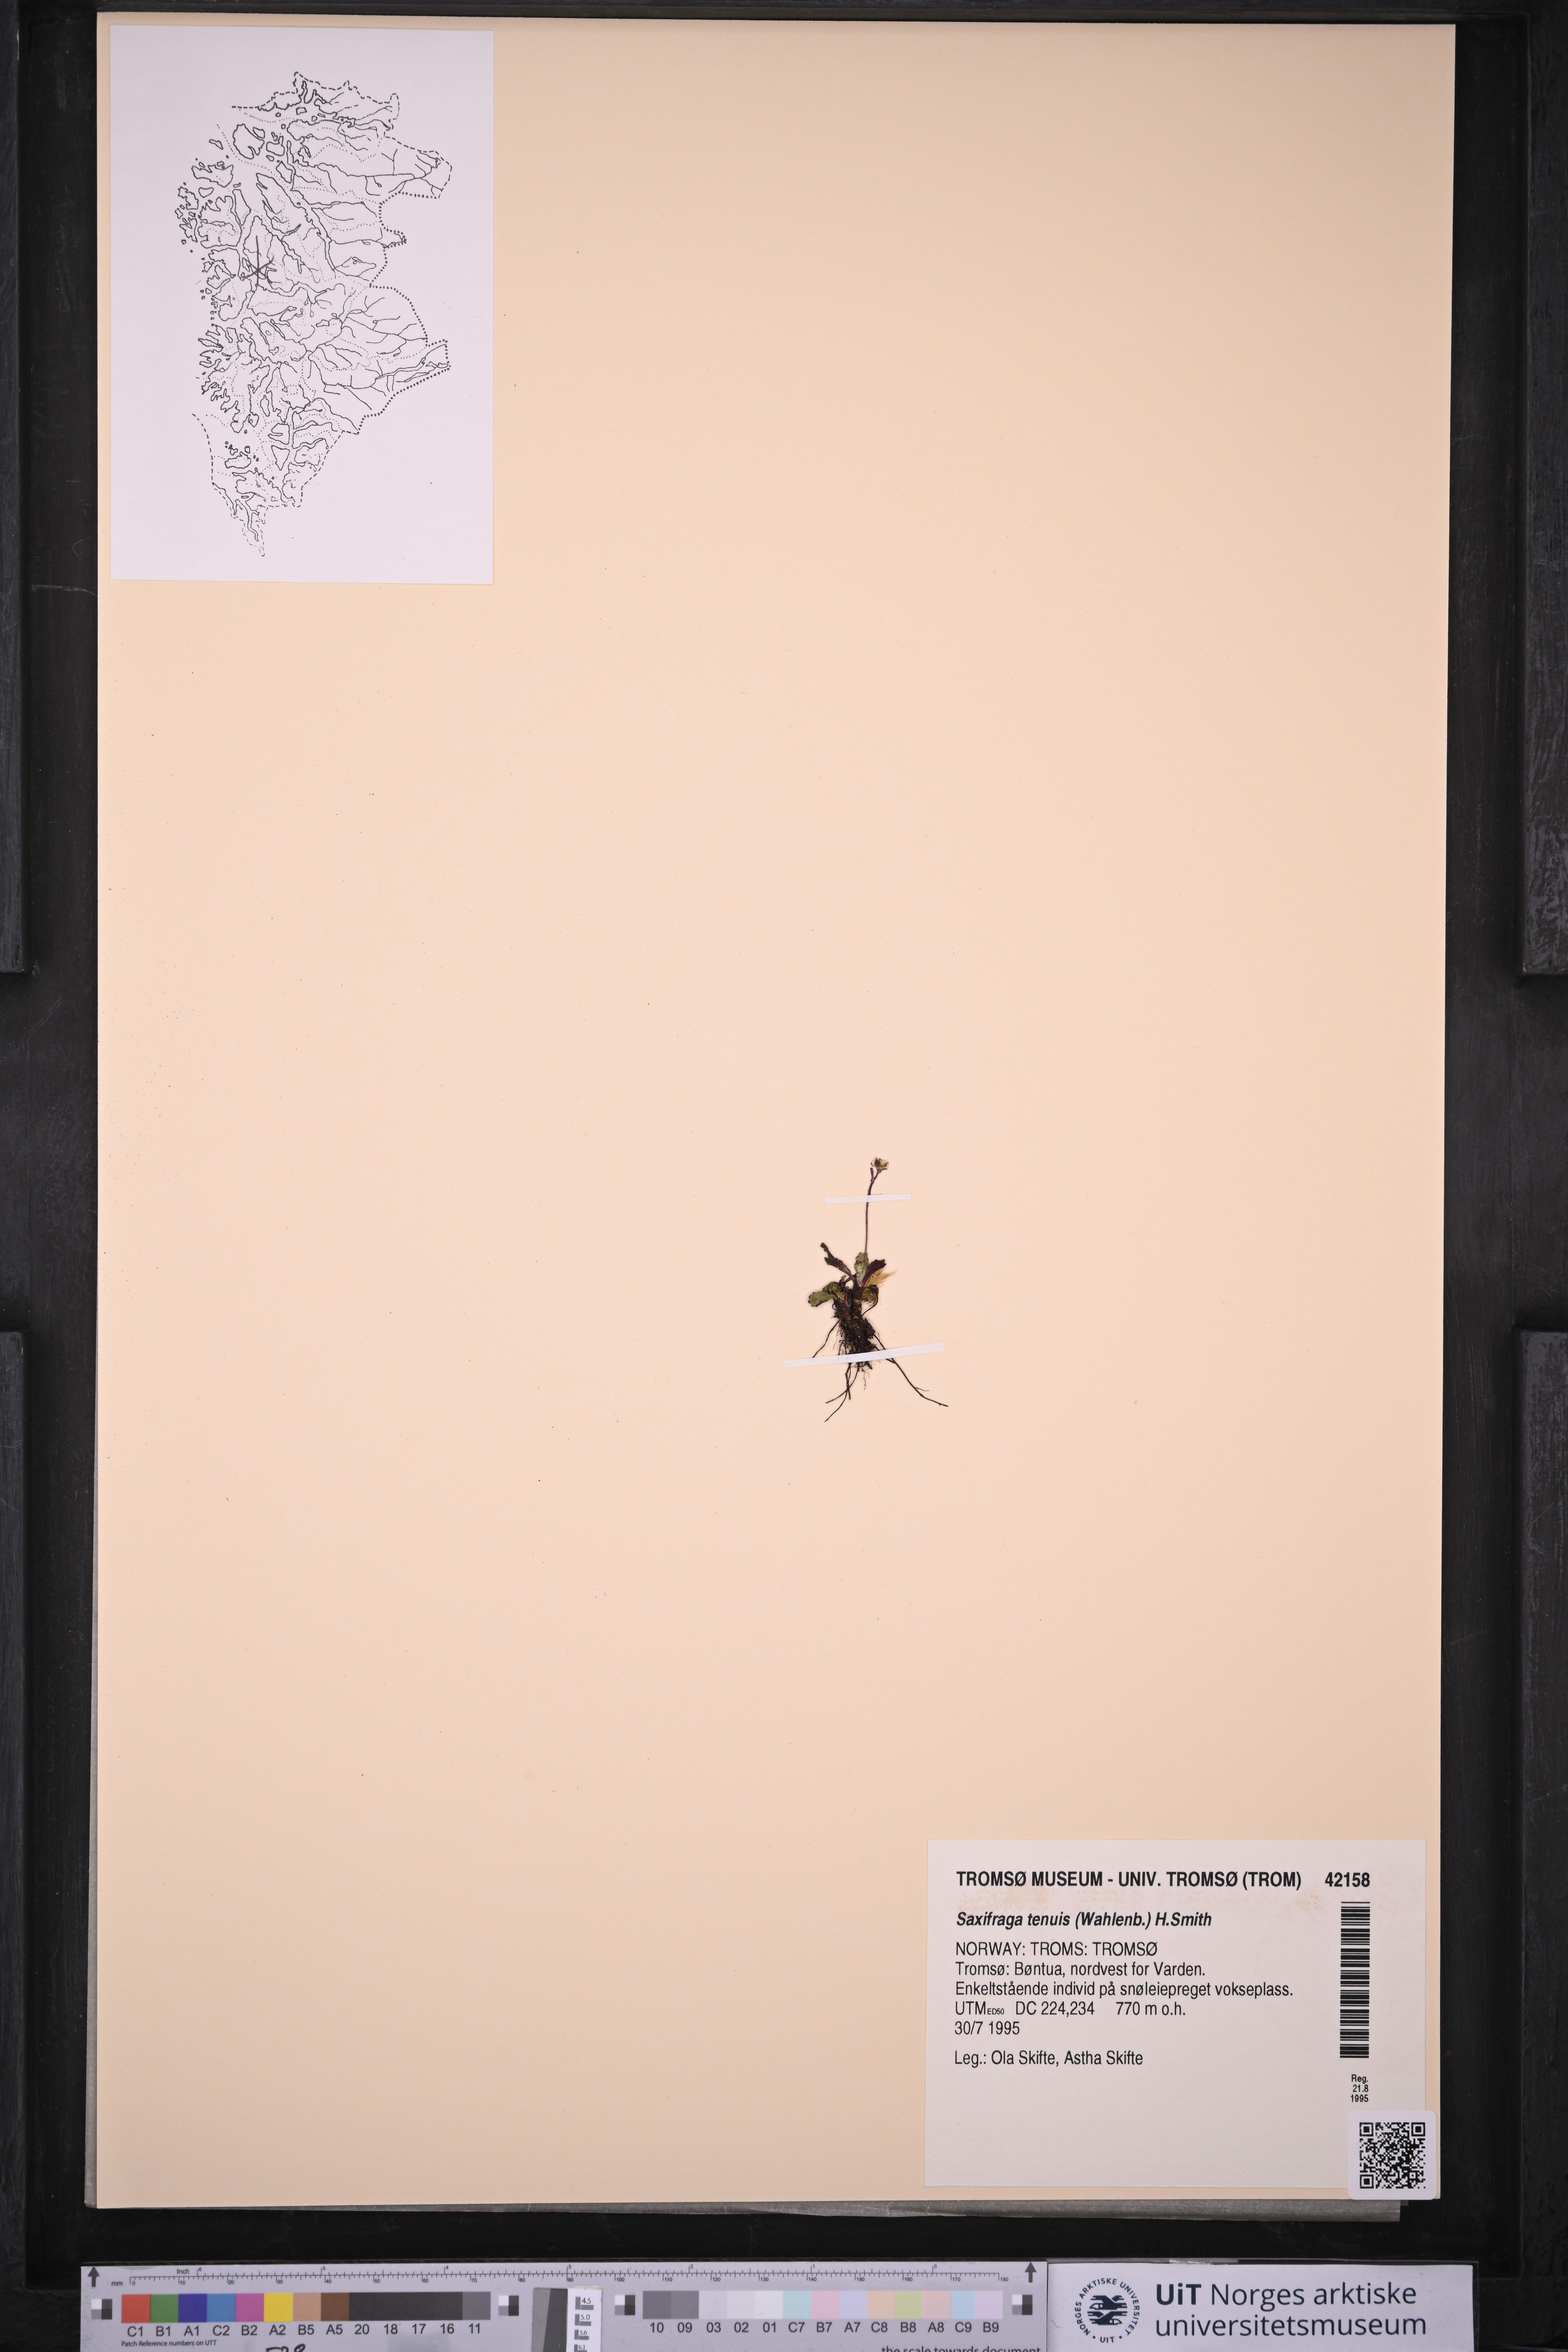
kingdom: Plantae
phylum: Tracheophyta
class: Magnoliopsida
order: Saxifragales
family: Saxifragaceae
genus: Micranthes
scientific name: Micranthes tenuis
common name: Ottertail pass saxifrage
